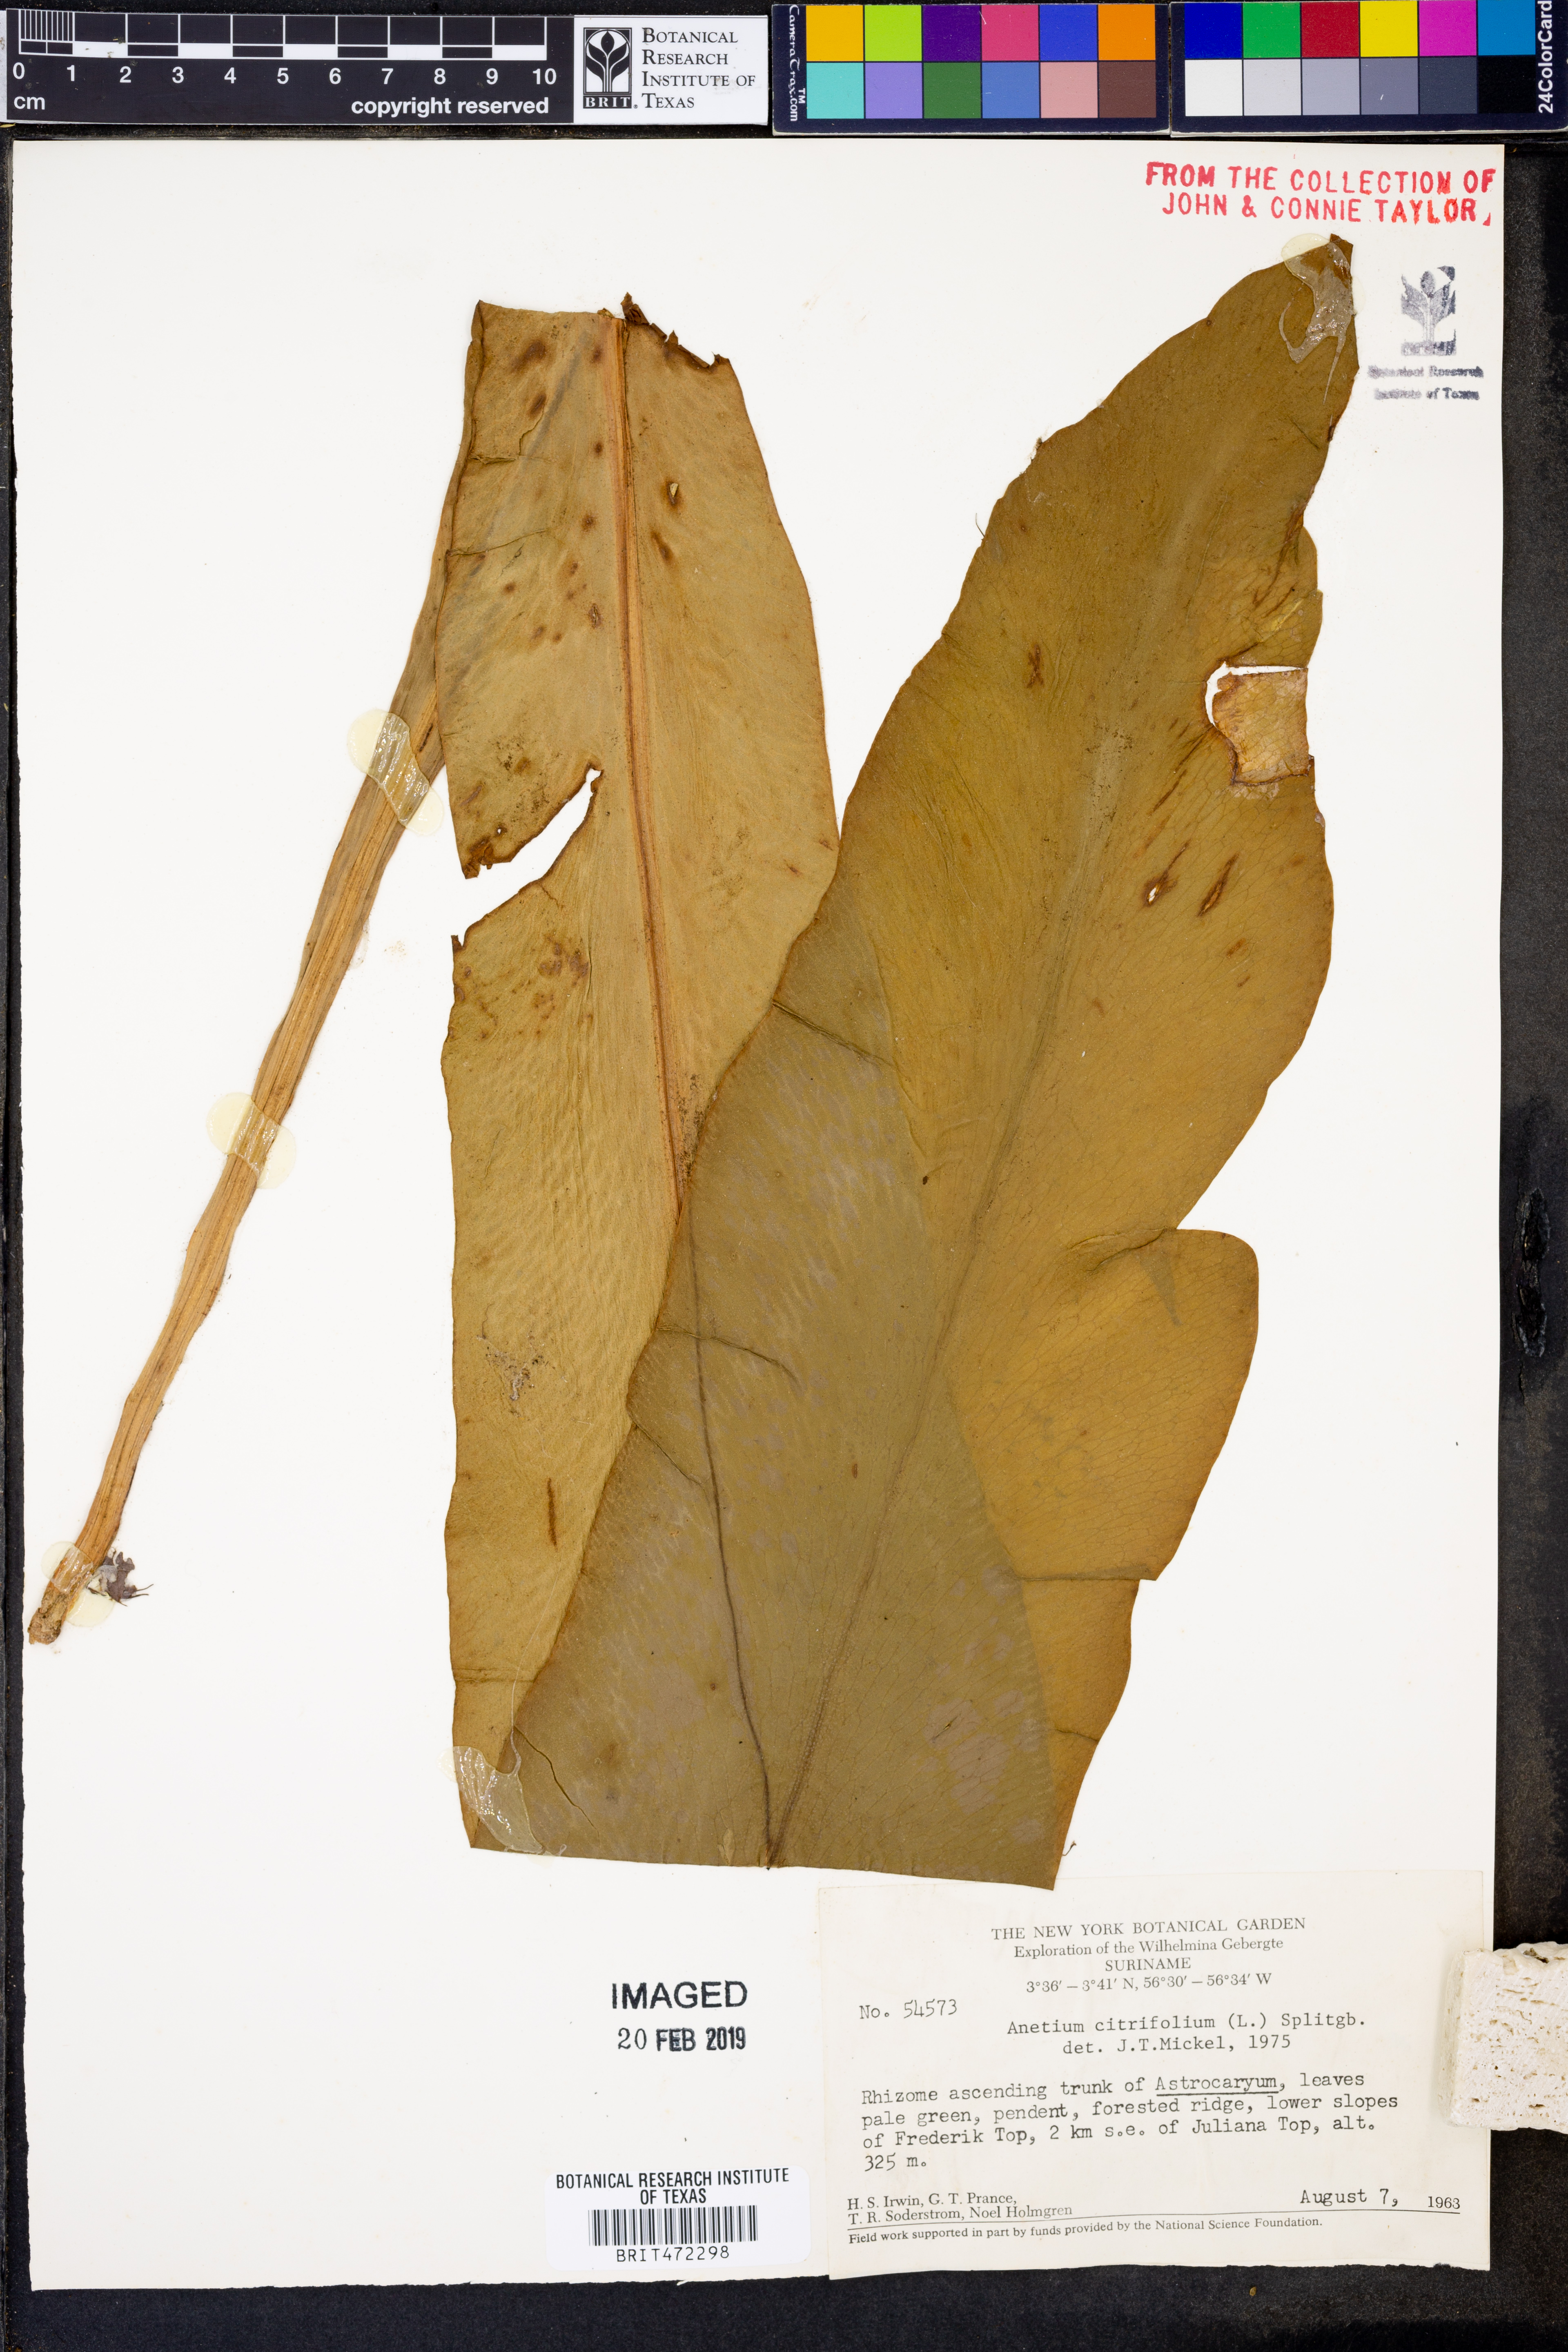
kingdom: Plantae
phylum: Tracheophyta
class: Polypodiopsida
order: Polypodiales
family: Pteridaceae
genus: Polytaenium
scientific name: Polytaenium citrifolium
